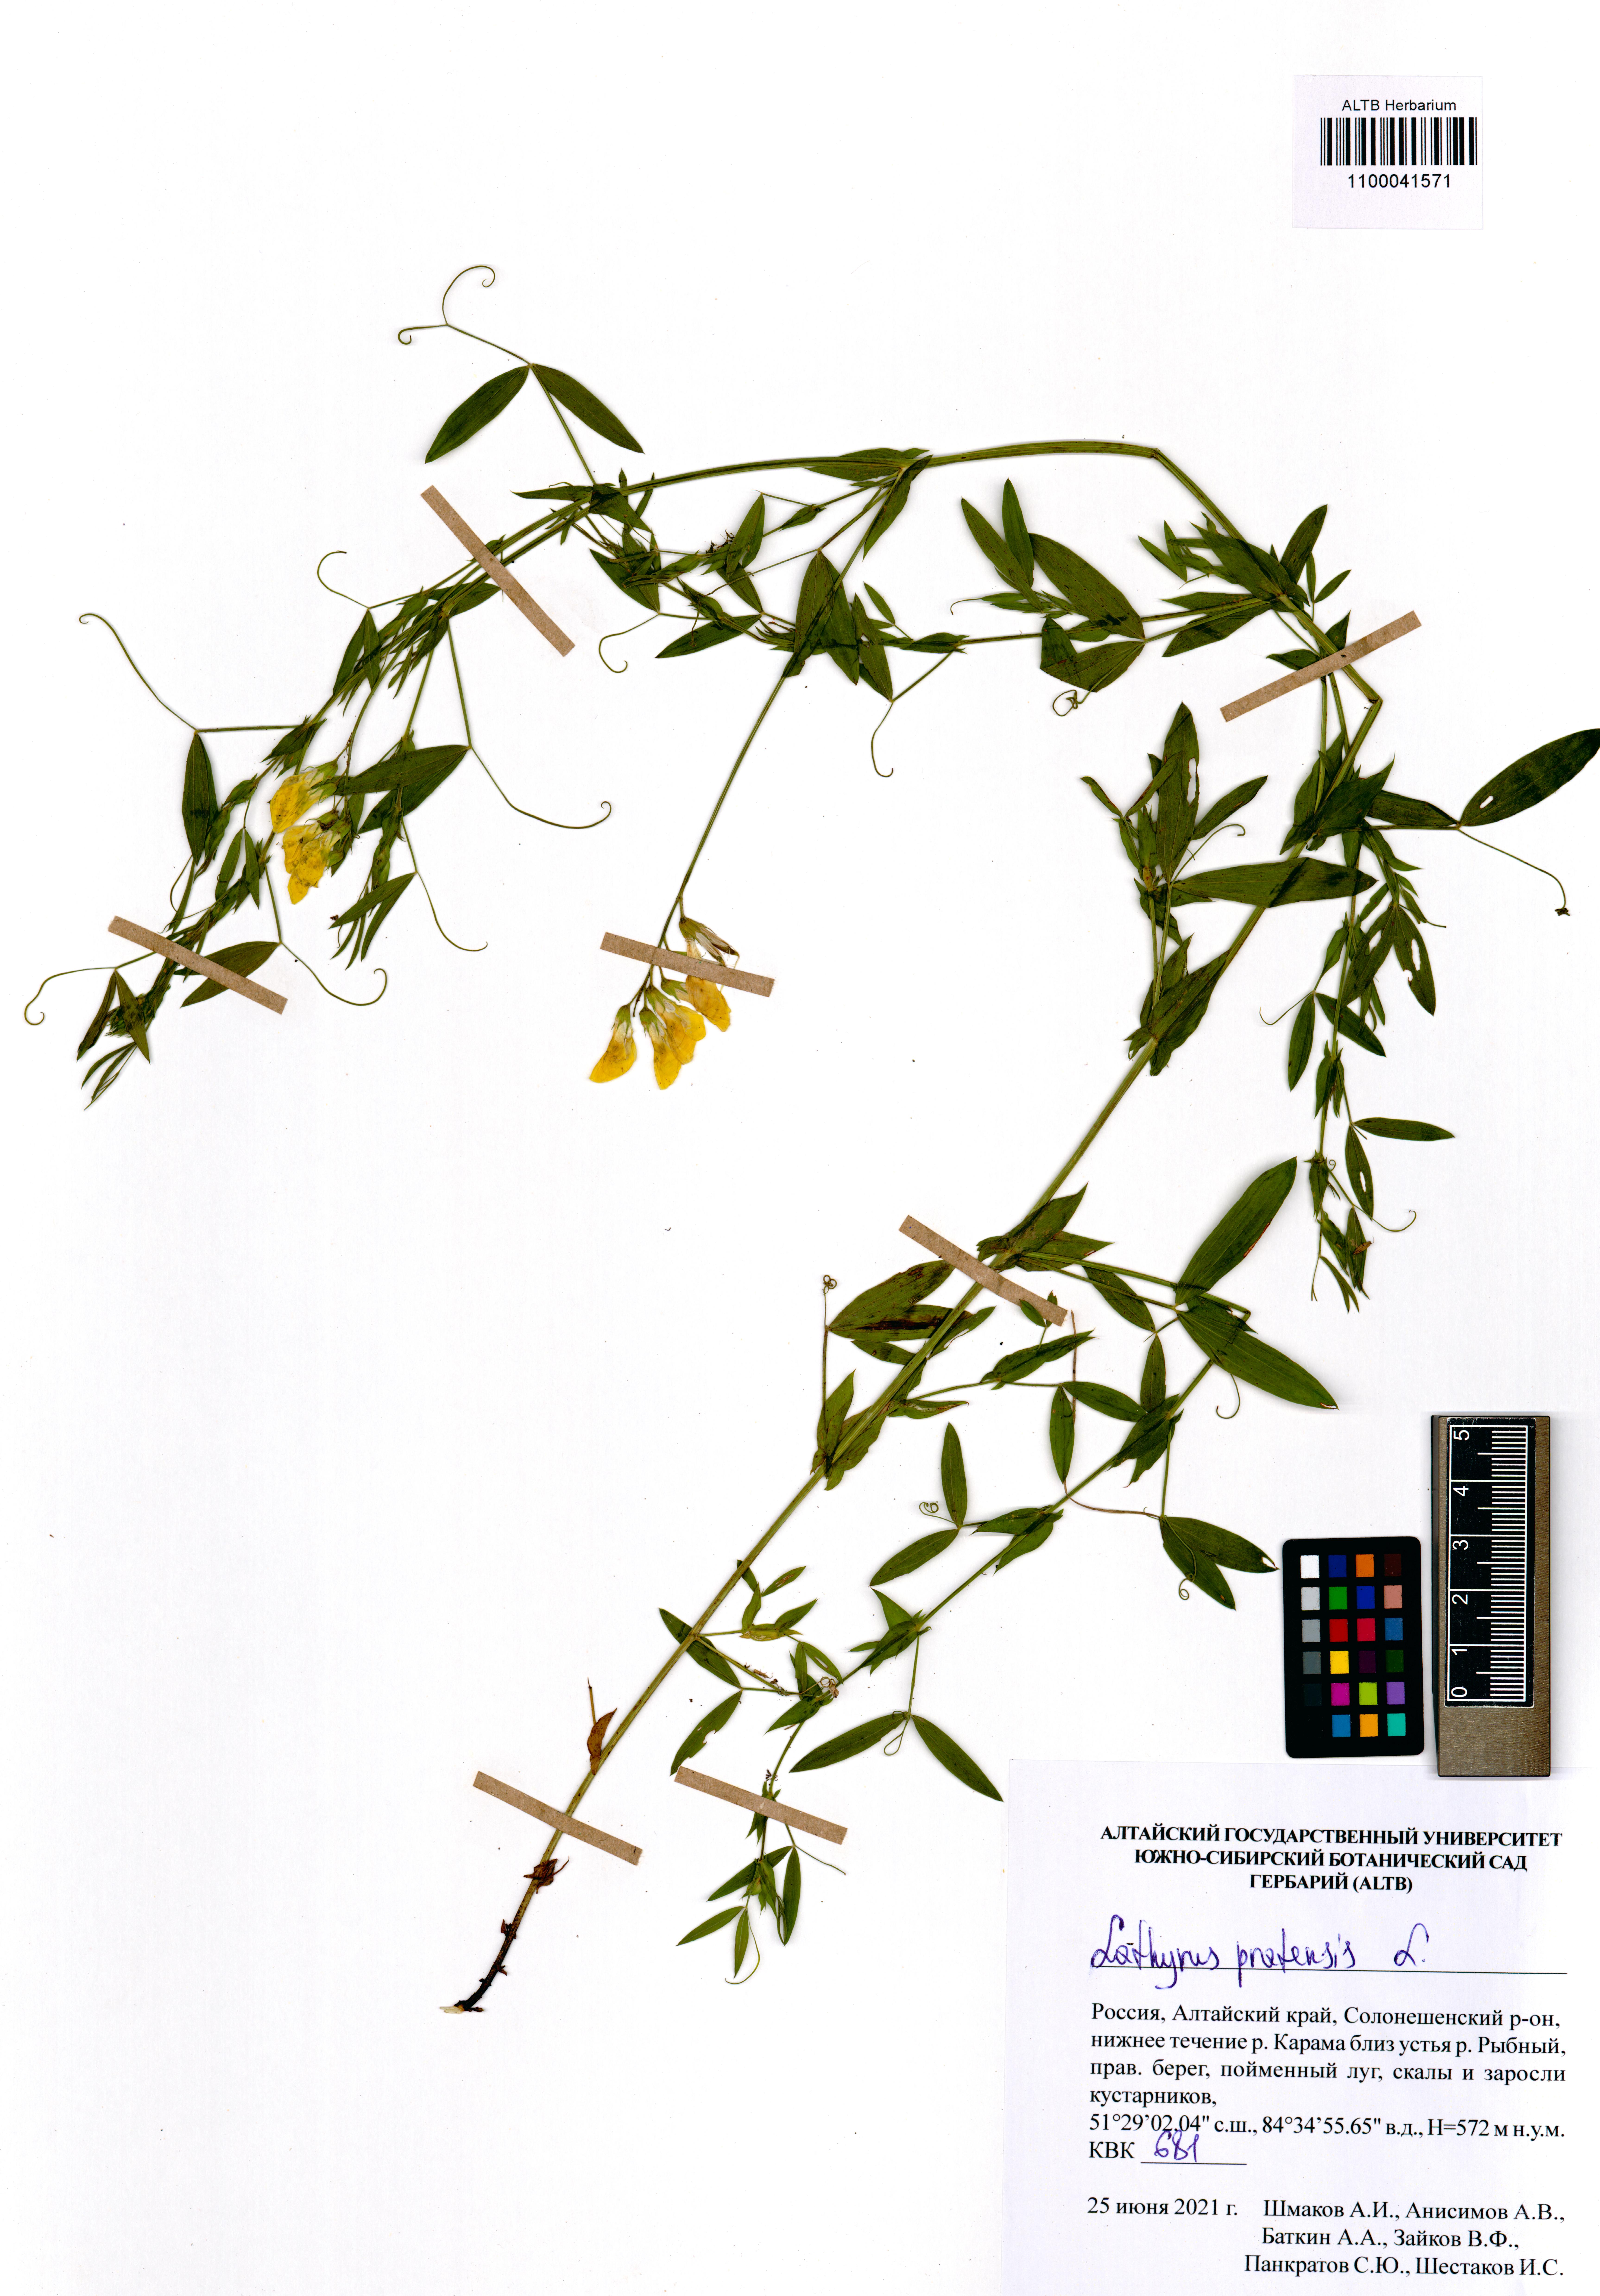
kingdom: Plantae
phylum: Tracheophyta
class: Magnoliopsida
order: Fabales
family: Fabaceae
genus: Lathyrus
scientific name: Lathyrus pratensis
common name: Meadow vetchling
